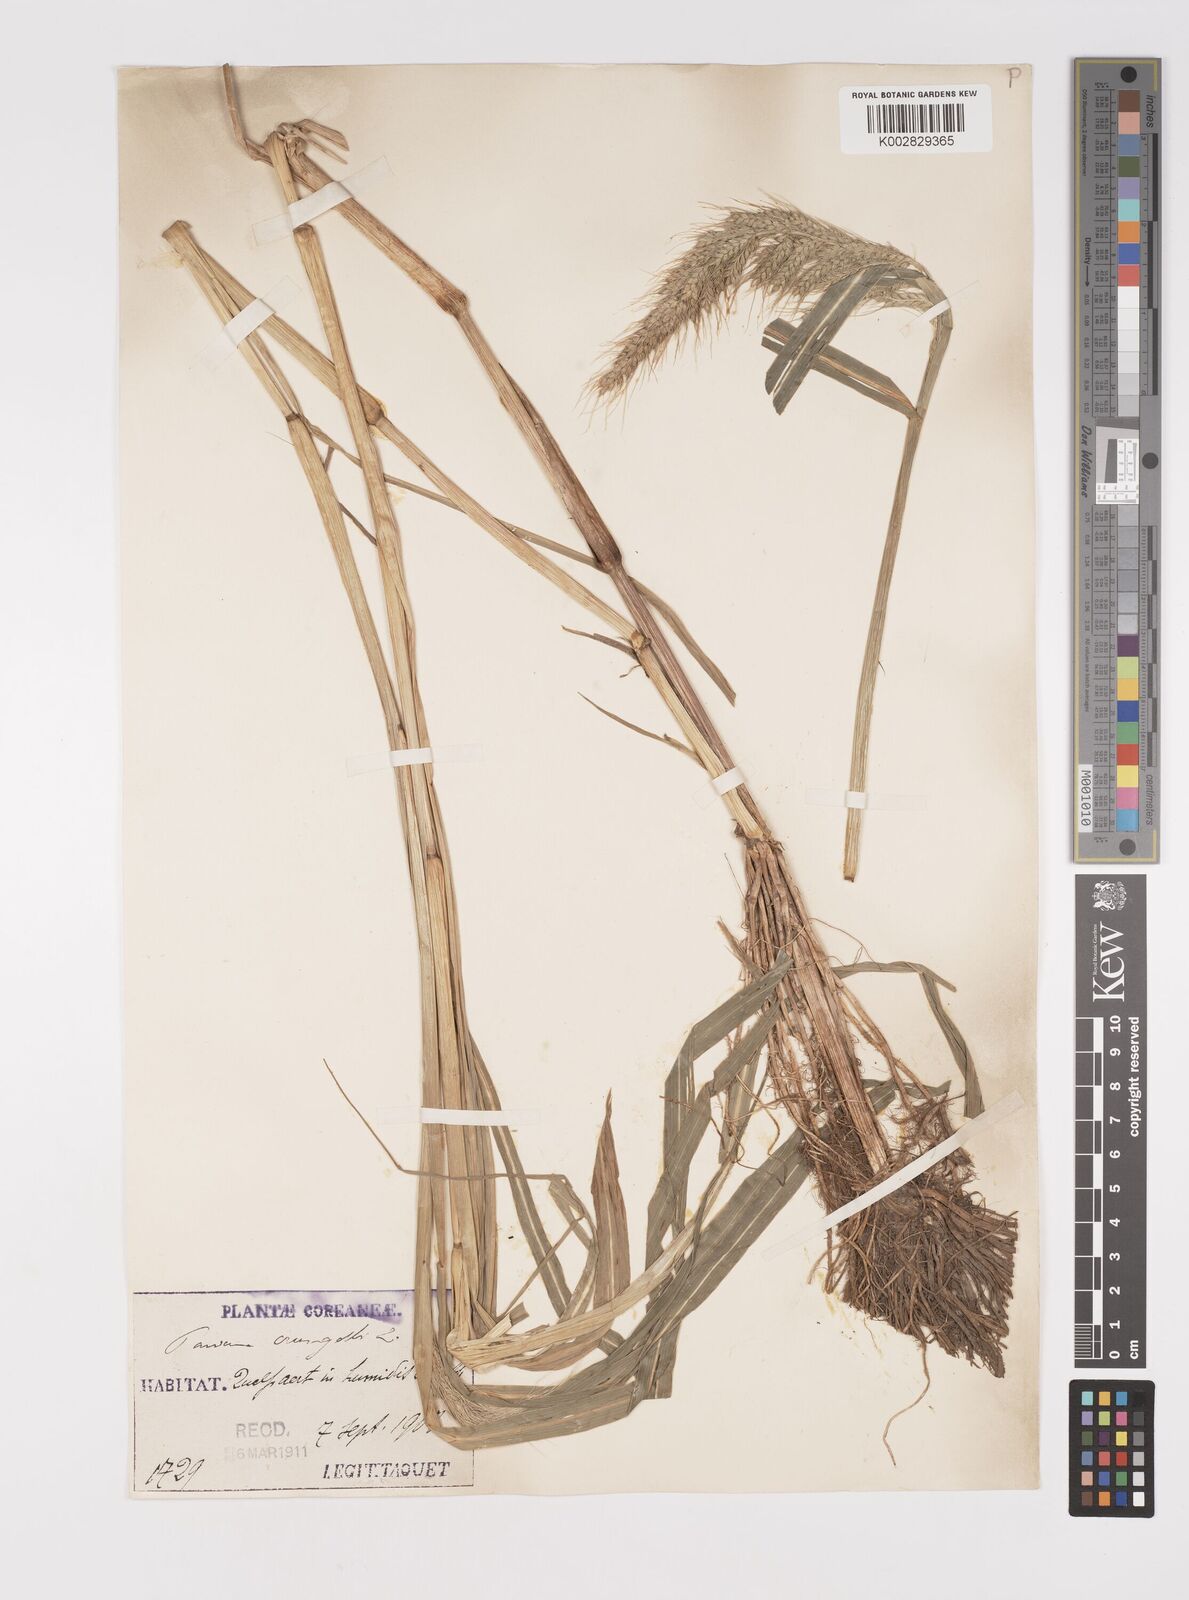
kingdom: Plantae
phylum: Tracheophyta
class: Liliopsida
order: Poales
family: Poaceae
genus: Echinochloa
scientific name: Echinochloa crus-galli
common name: Cockspur
